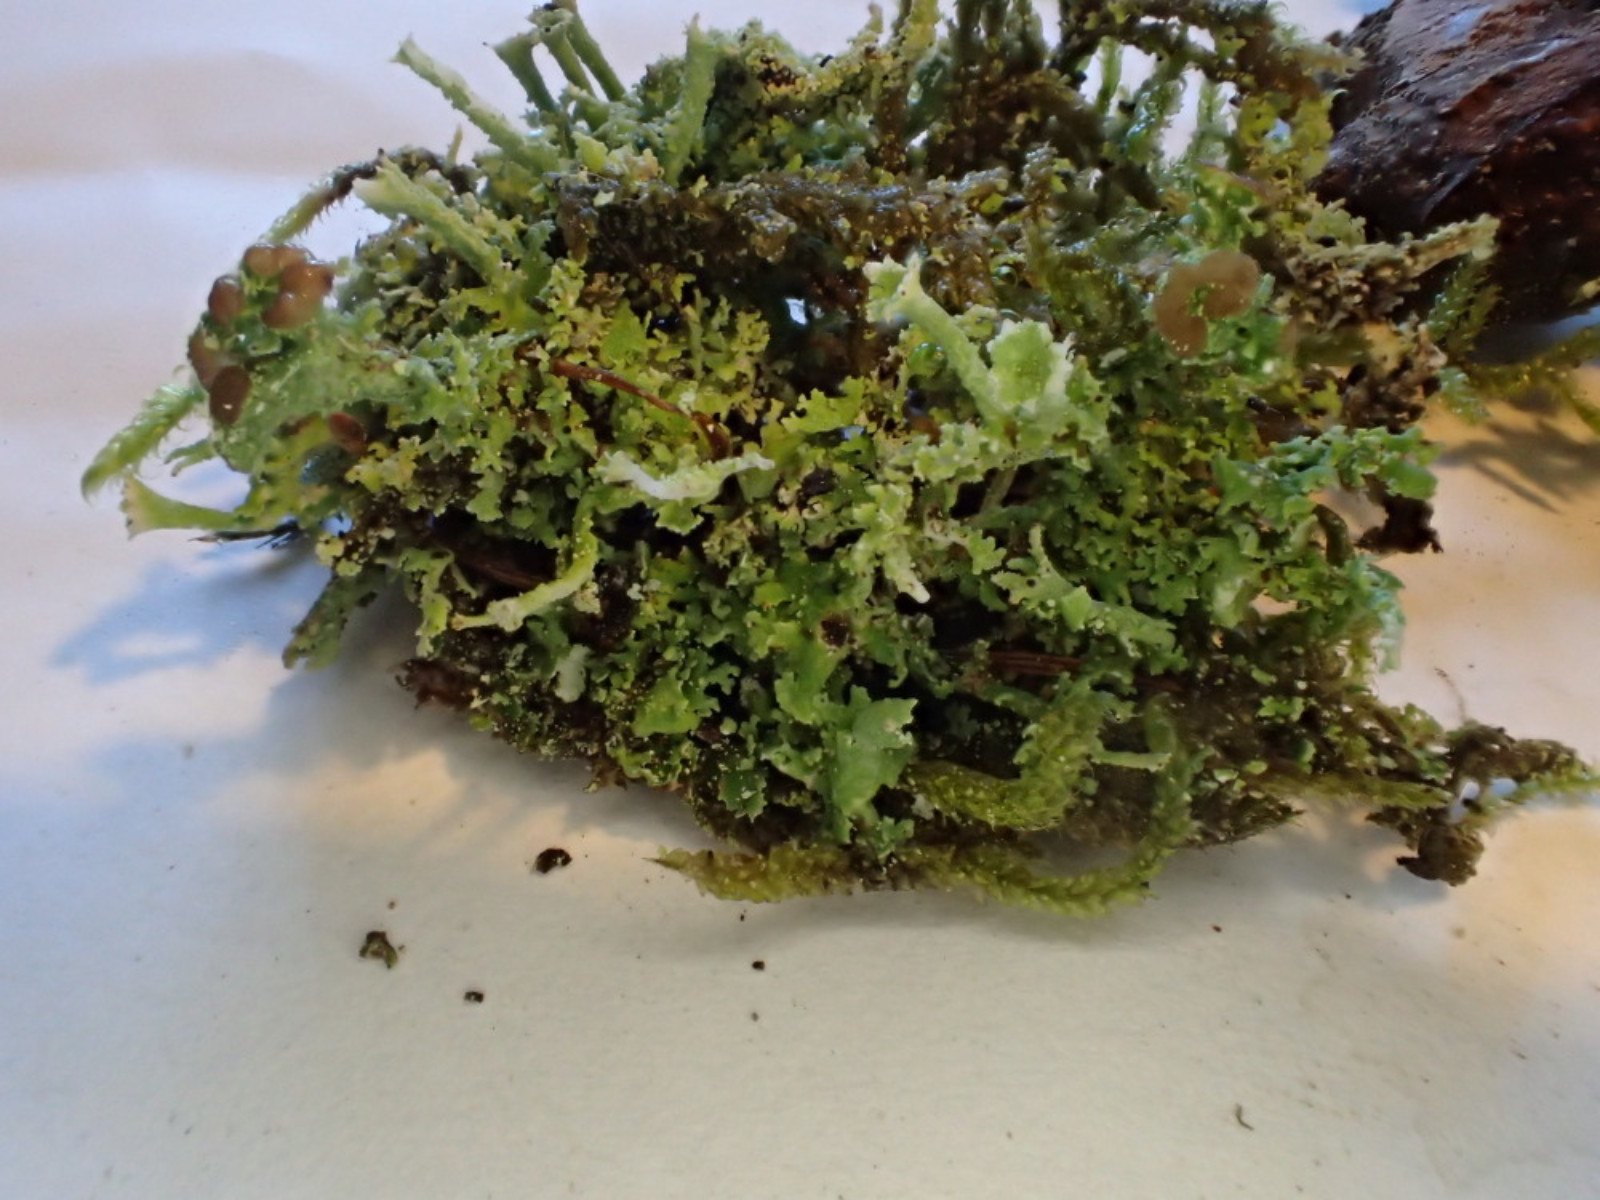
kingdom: Fungi
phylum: Ascomycota
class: Lecanoromycetes
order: Lecanorales
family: Cladoniaceae
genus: Cladonia
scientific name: Cladonia ramulosa
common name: kliddet bægerlav
